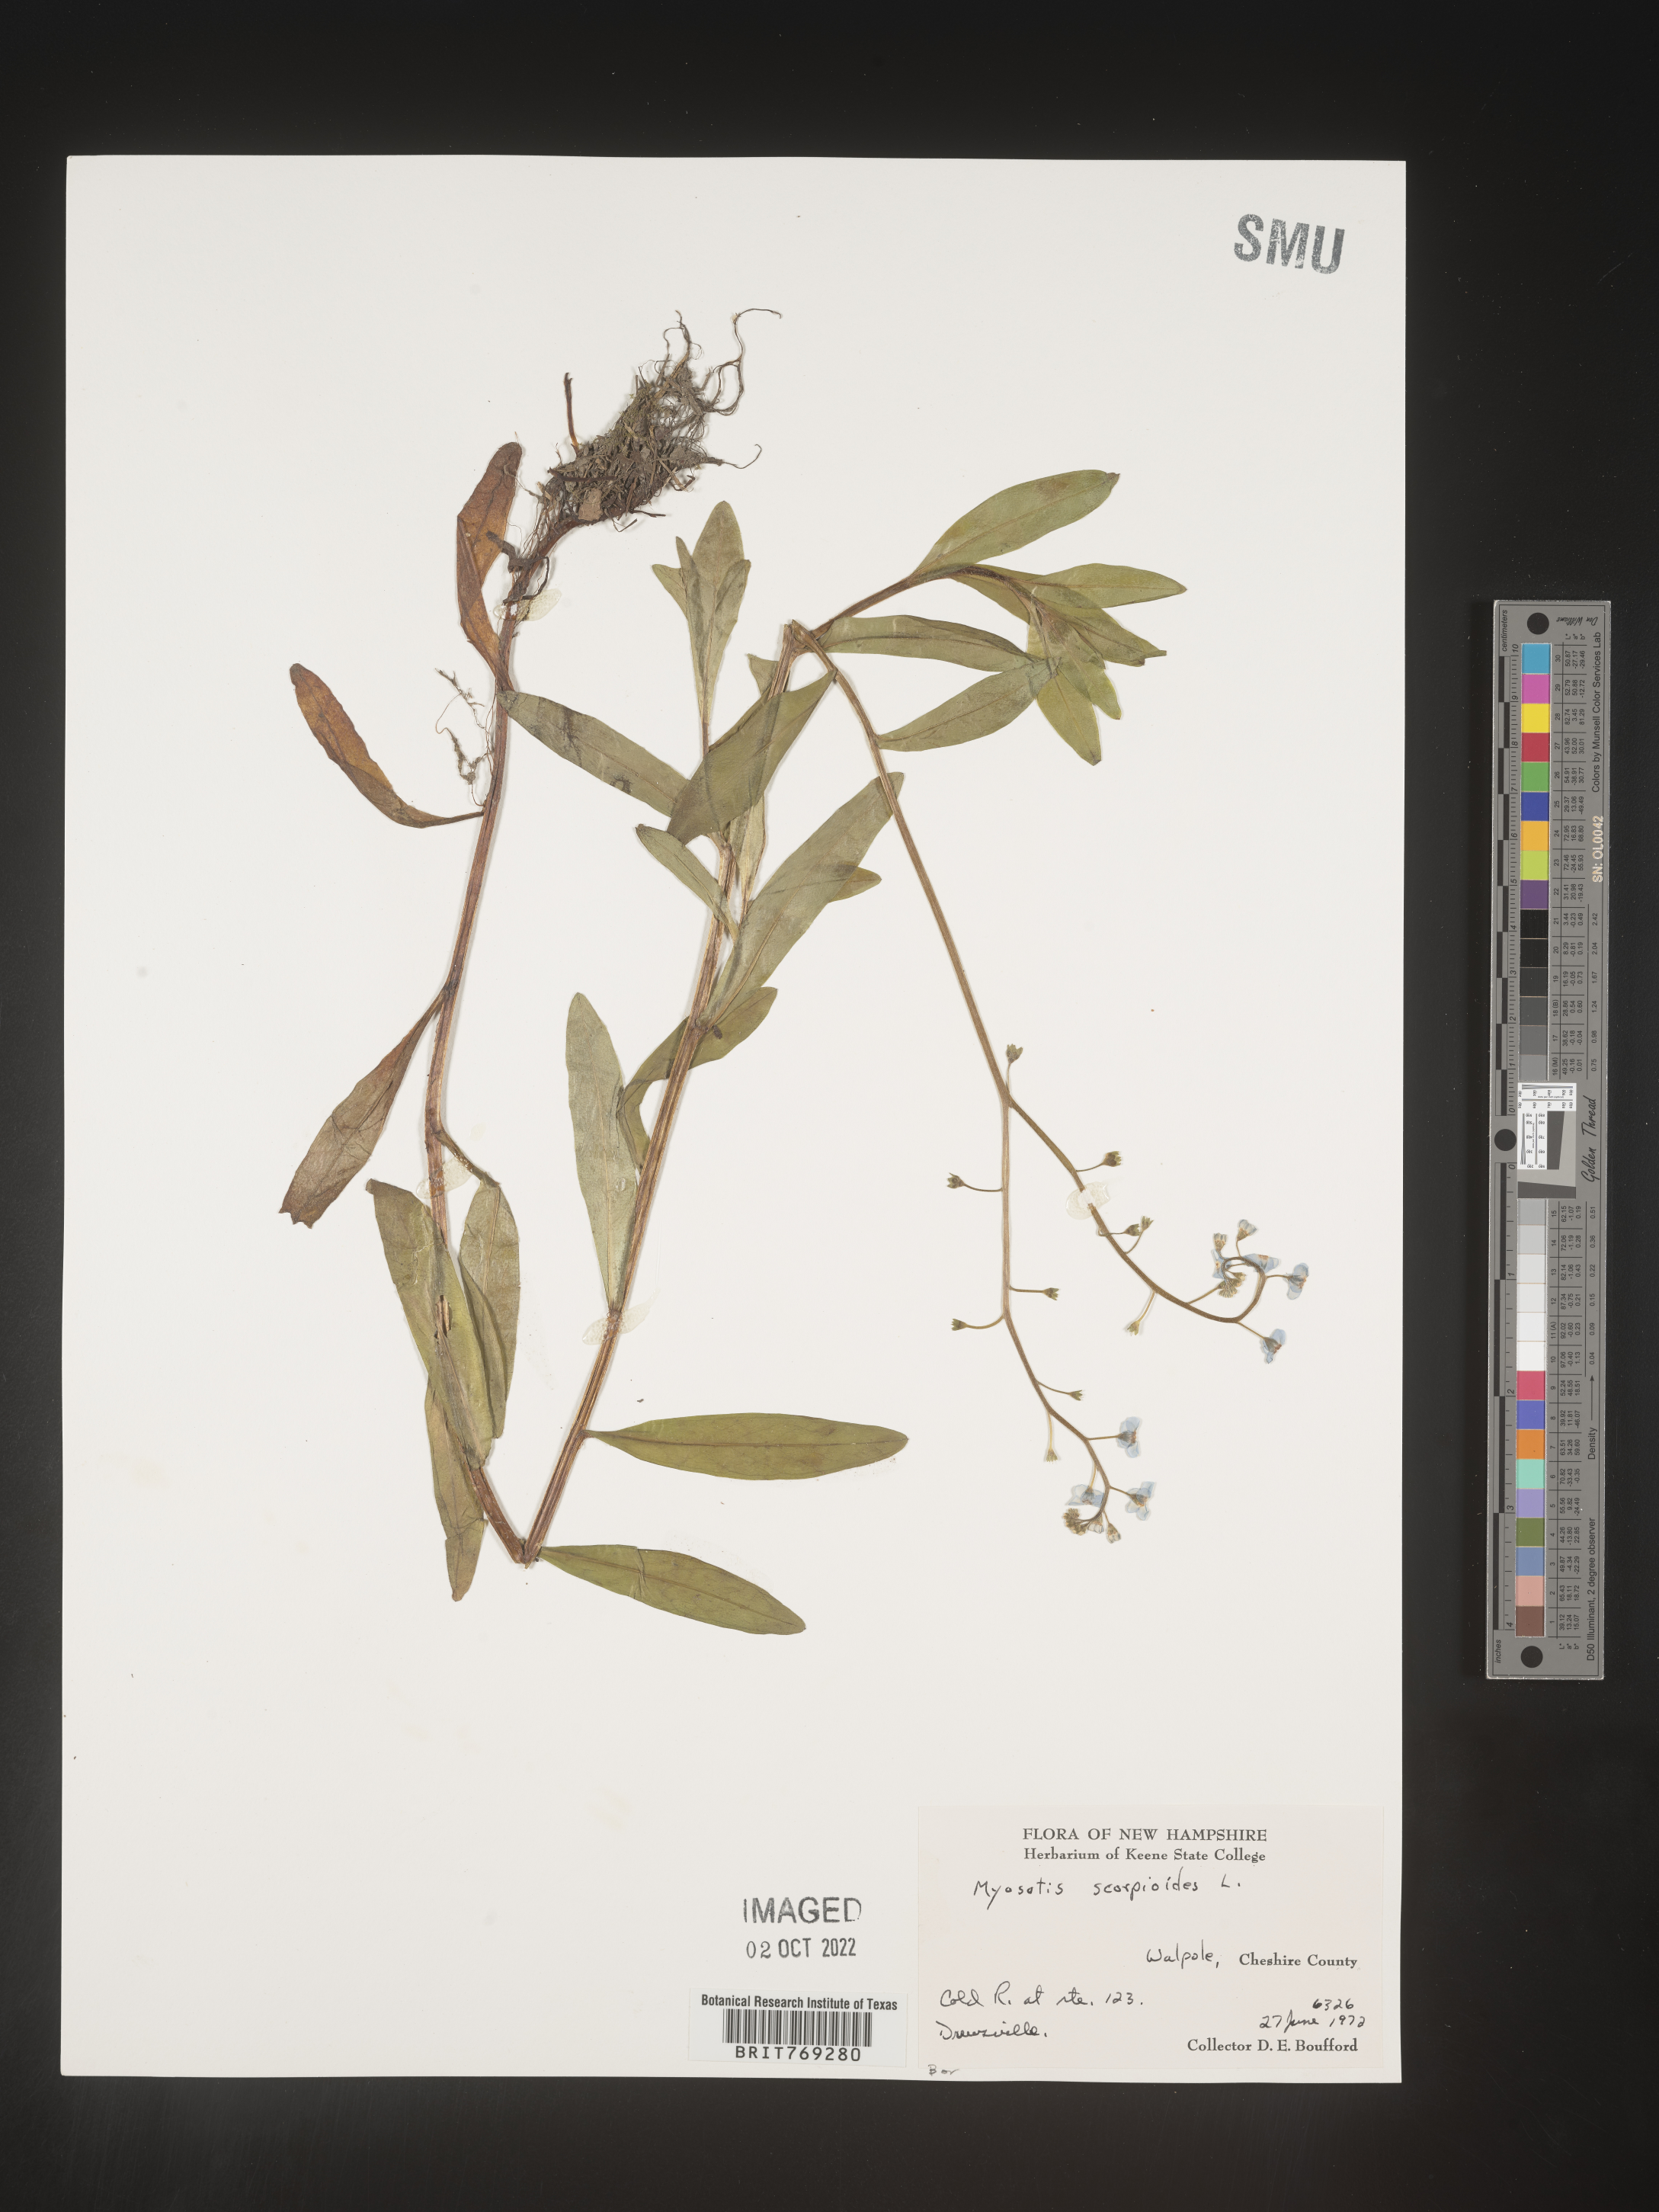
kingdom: Plantae
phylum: Tracheophyta
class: Magnoliopsida
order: Boraginales
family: Boraginaceae
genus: Myosotis
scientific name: Myosotis scorpioides
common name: Water forget-me-not
